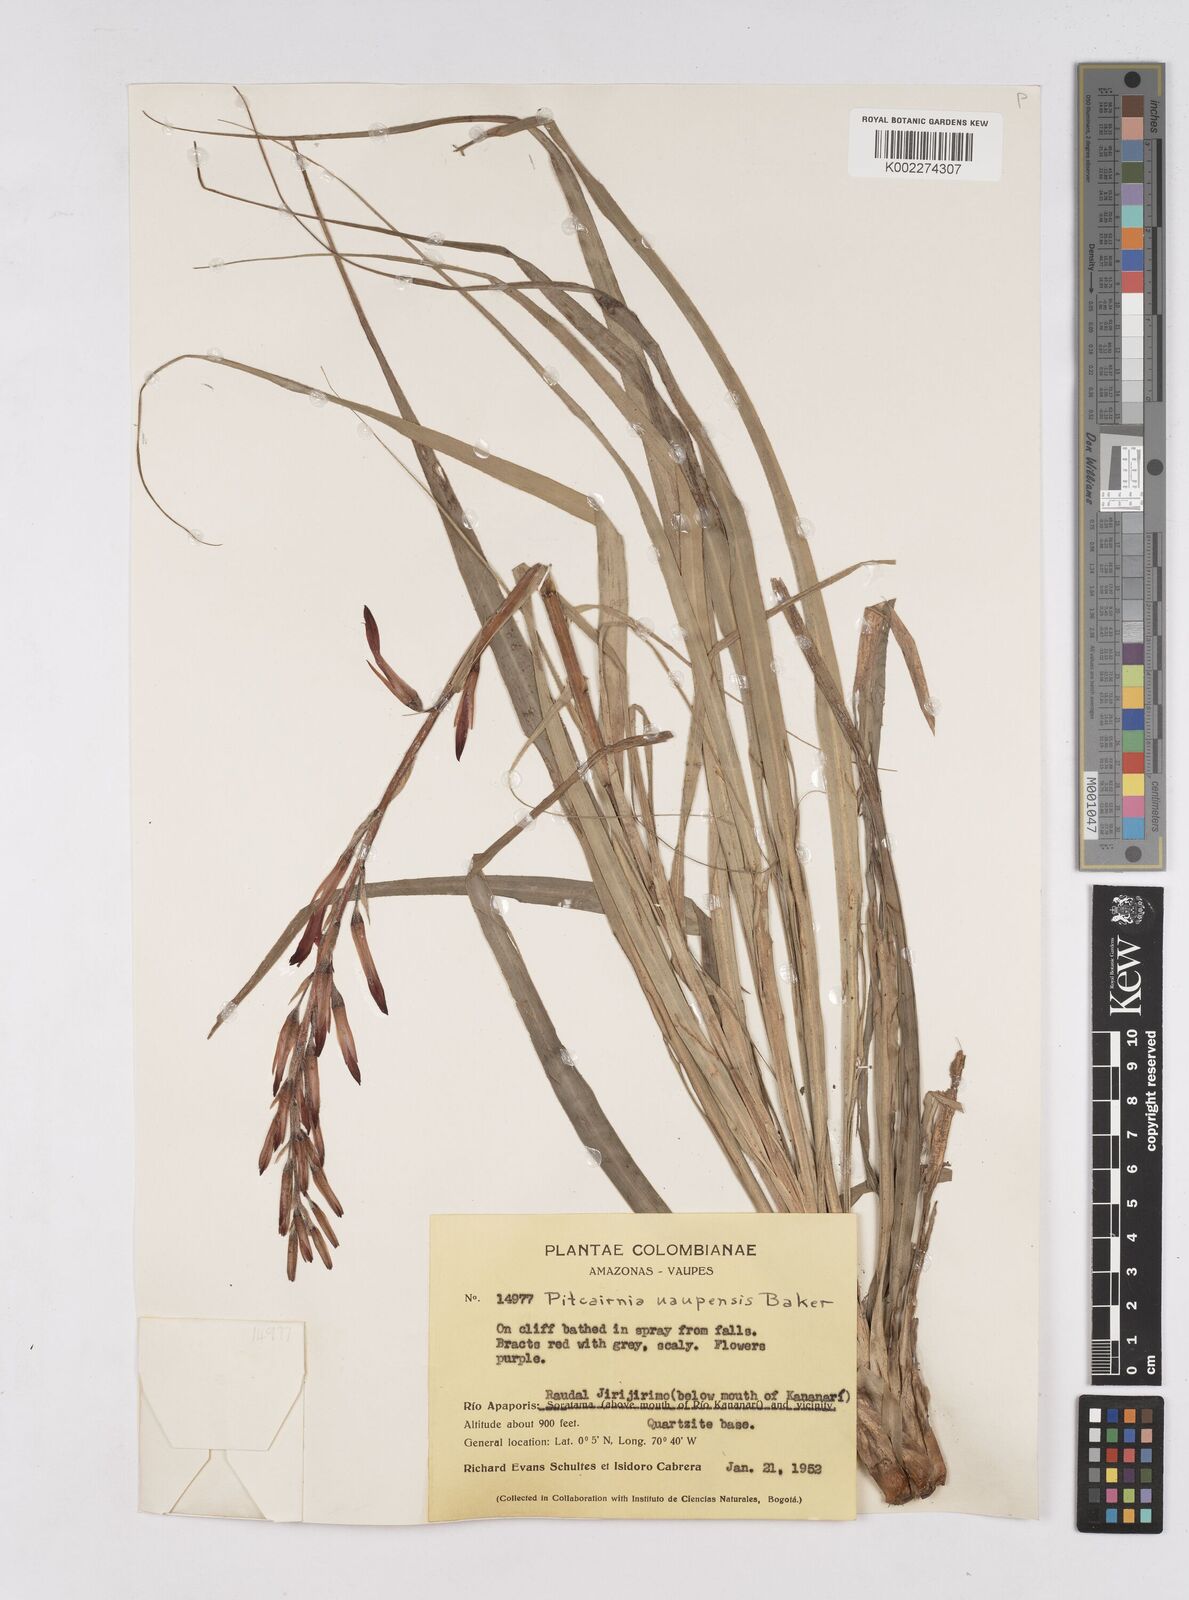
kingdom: Plantae
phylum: Tracheophyta
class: Liliopsida
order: Poales
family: Bromeliaceae
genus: Pitcairnia
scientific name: Pitcairnia uaupensis
